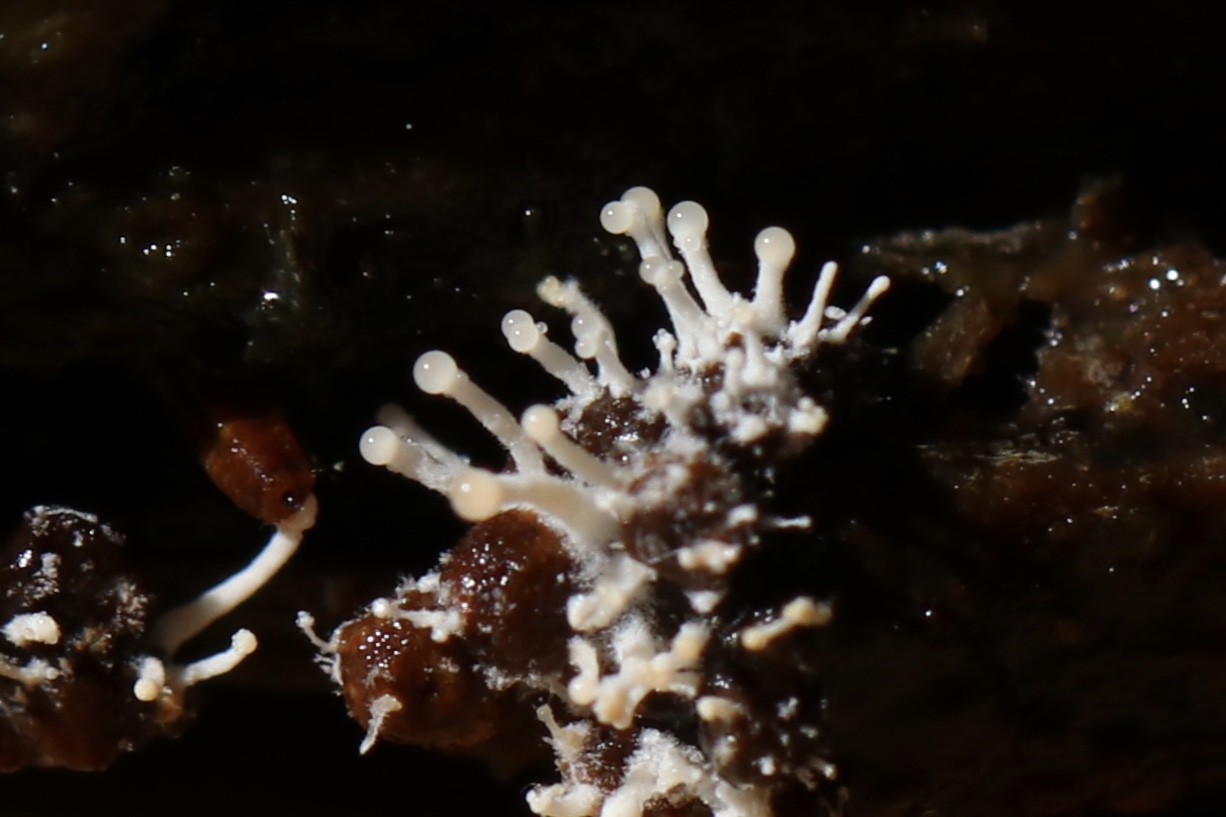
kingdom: Fungi
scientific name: Fungi
